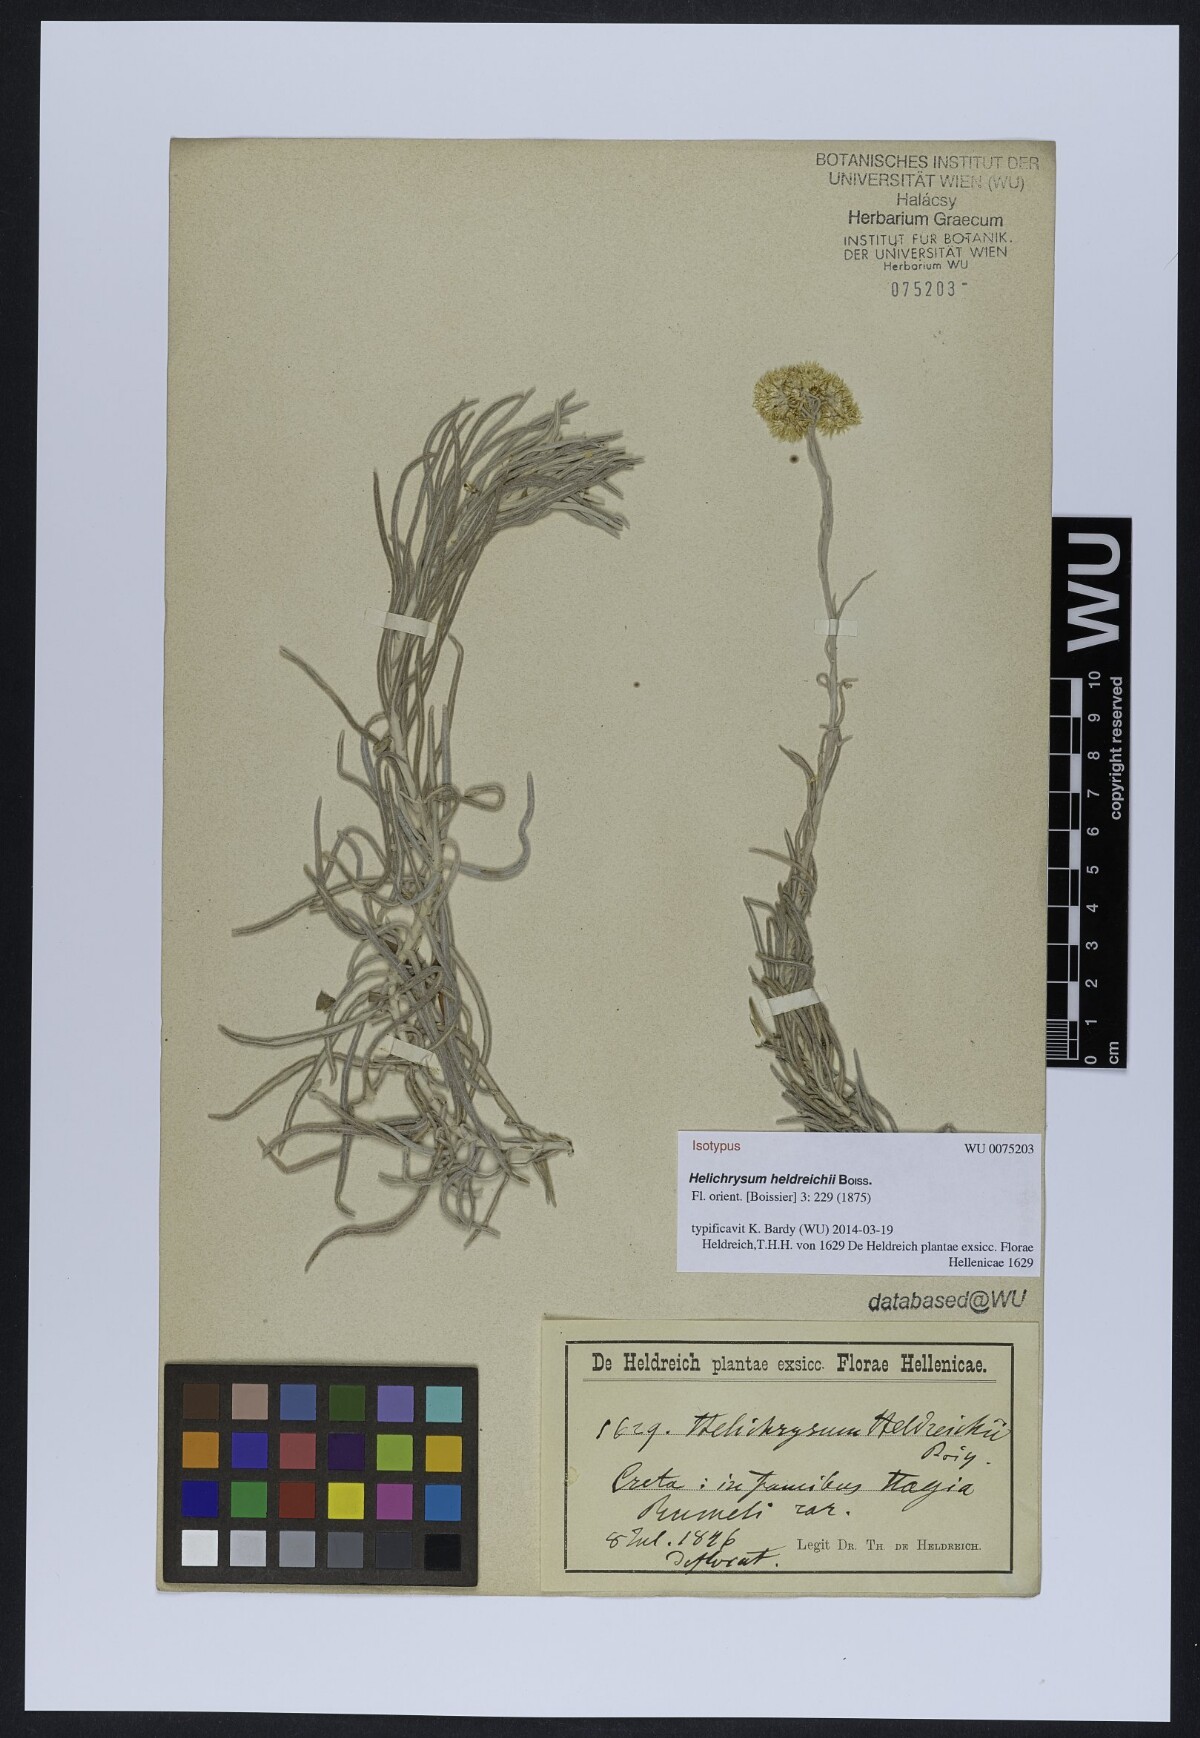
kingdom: Plantae
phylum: Tracheophyta
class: Magnoliopsida
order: Asterales
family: Asteraceae
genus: Helichrysum
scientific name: Helichrysum heldreichii
